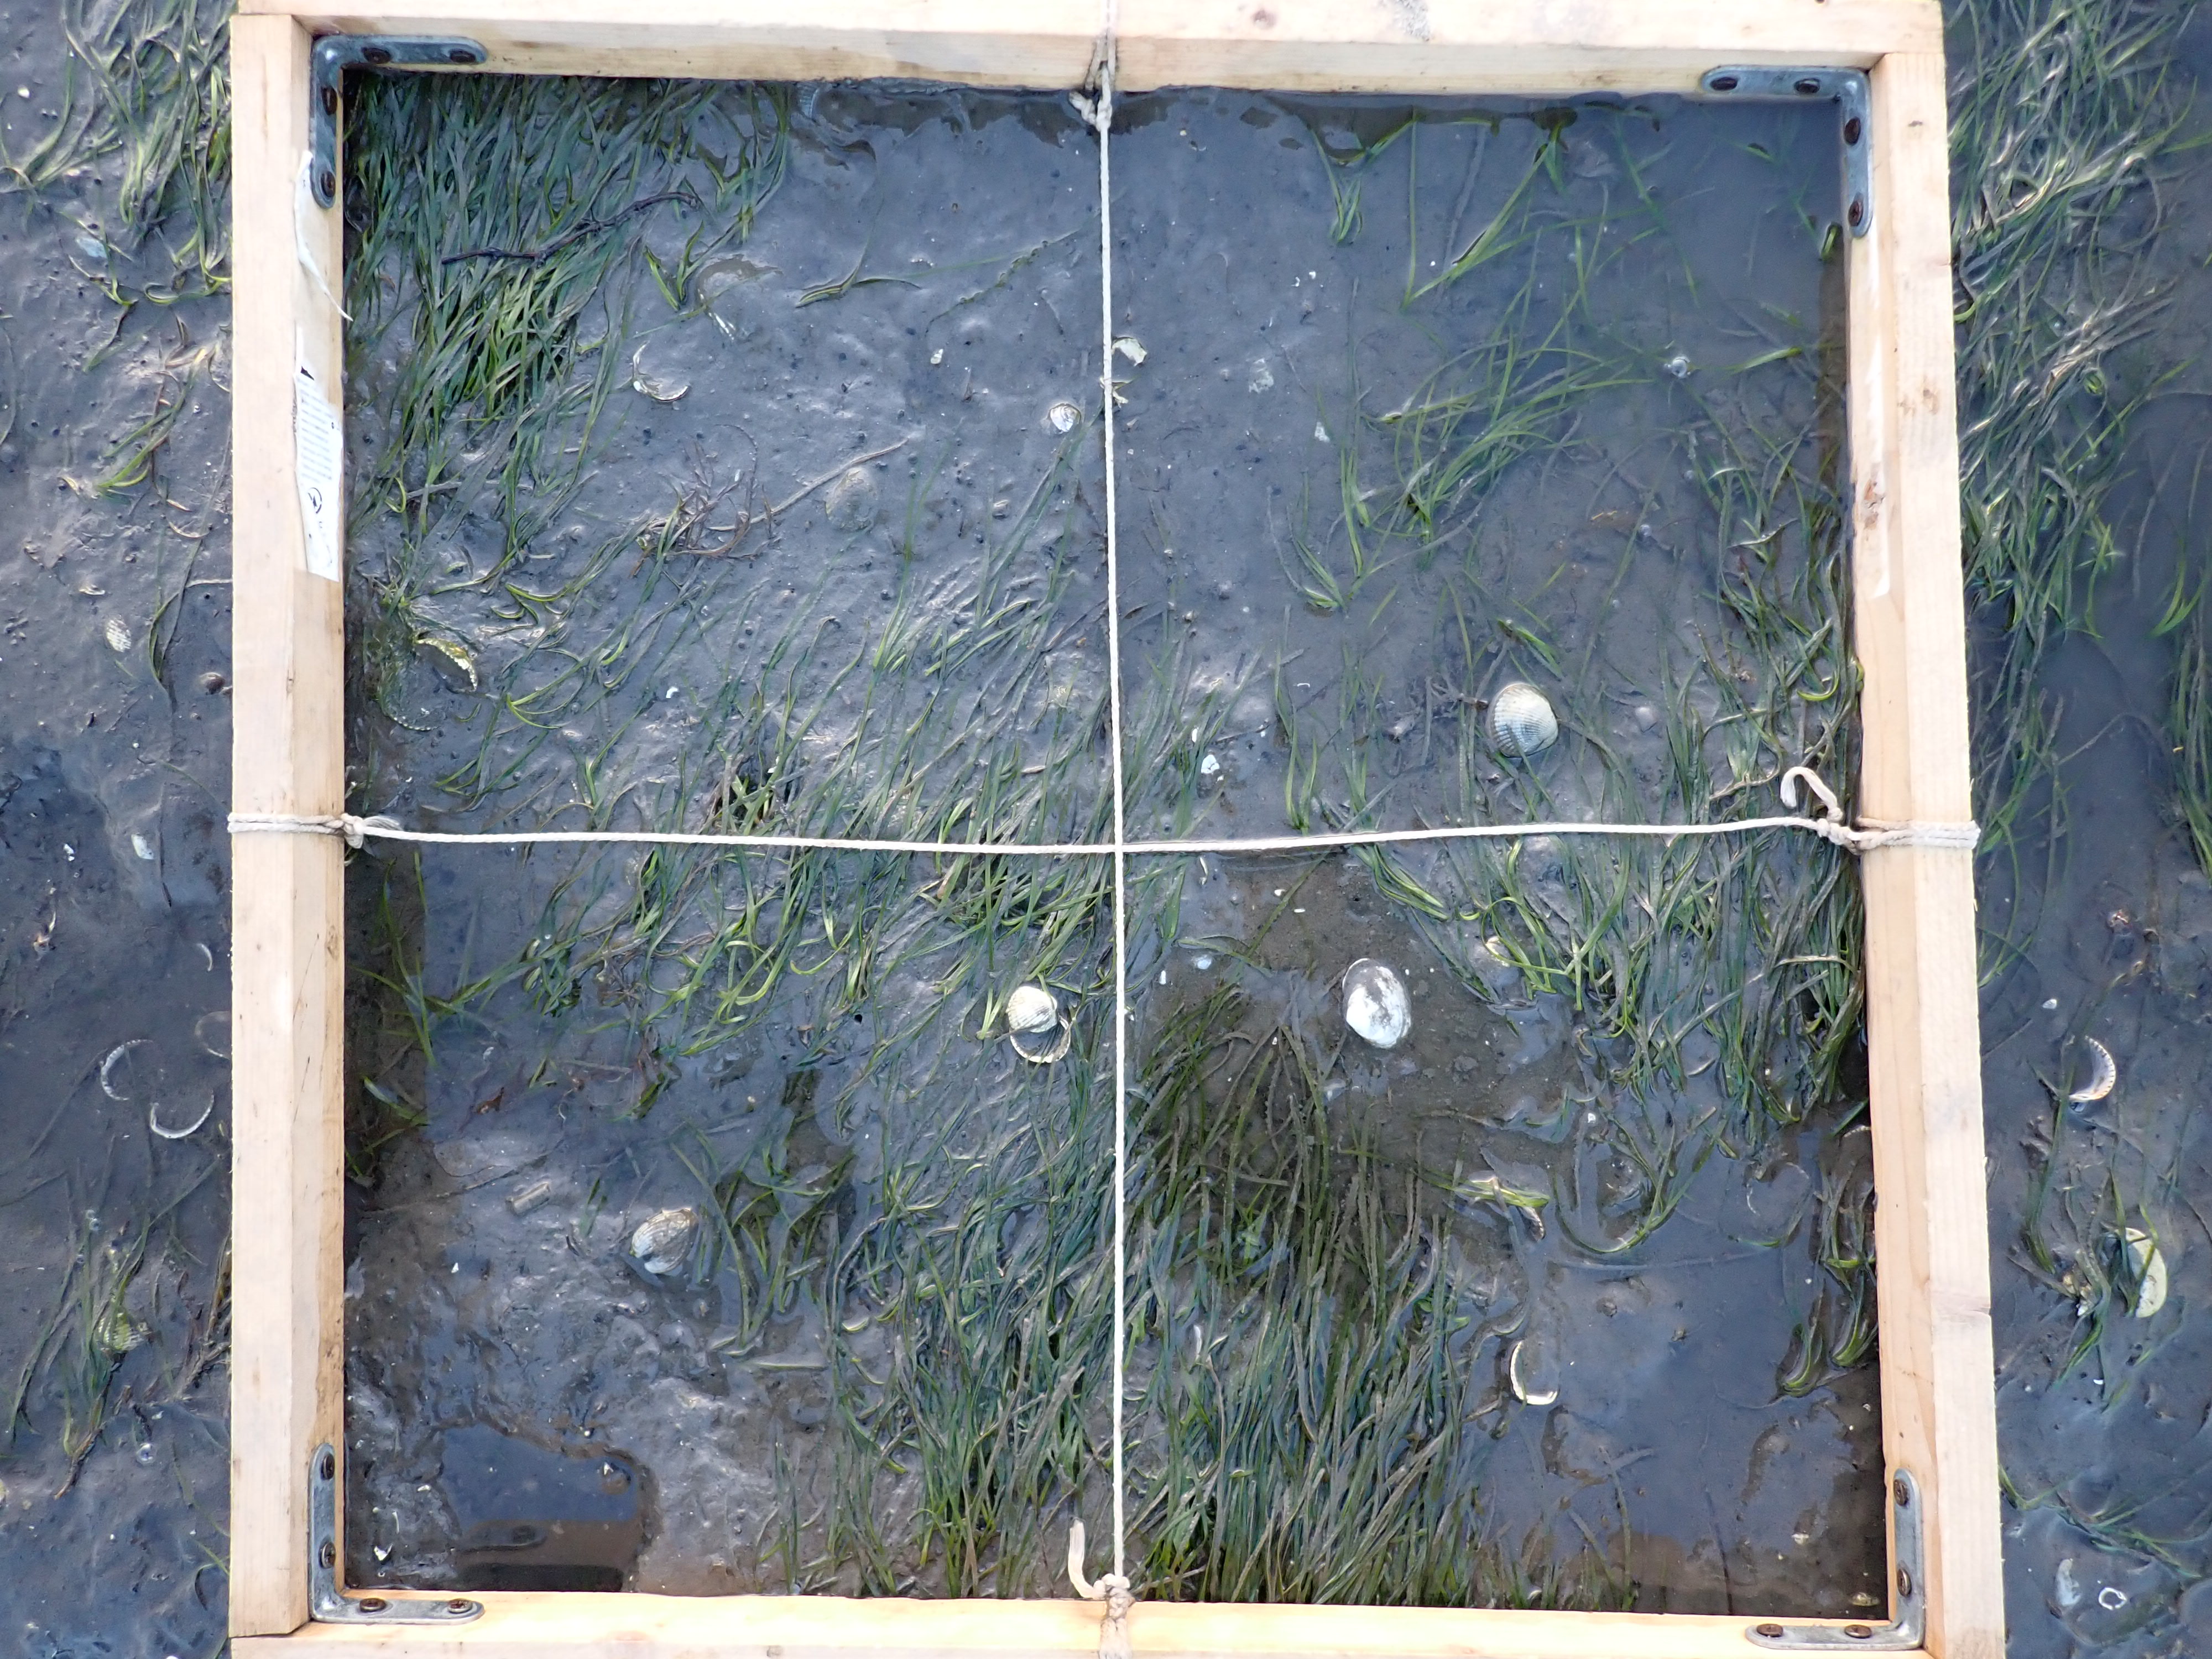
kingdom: Plantae
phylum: Tracheophyta
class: Liliopsida
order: Alismatales
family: Zosteraceae
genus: Zostera
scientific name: Zostera noltii
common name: Dwarf eelgrass
